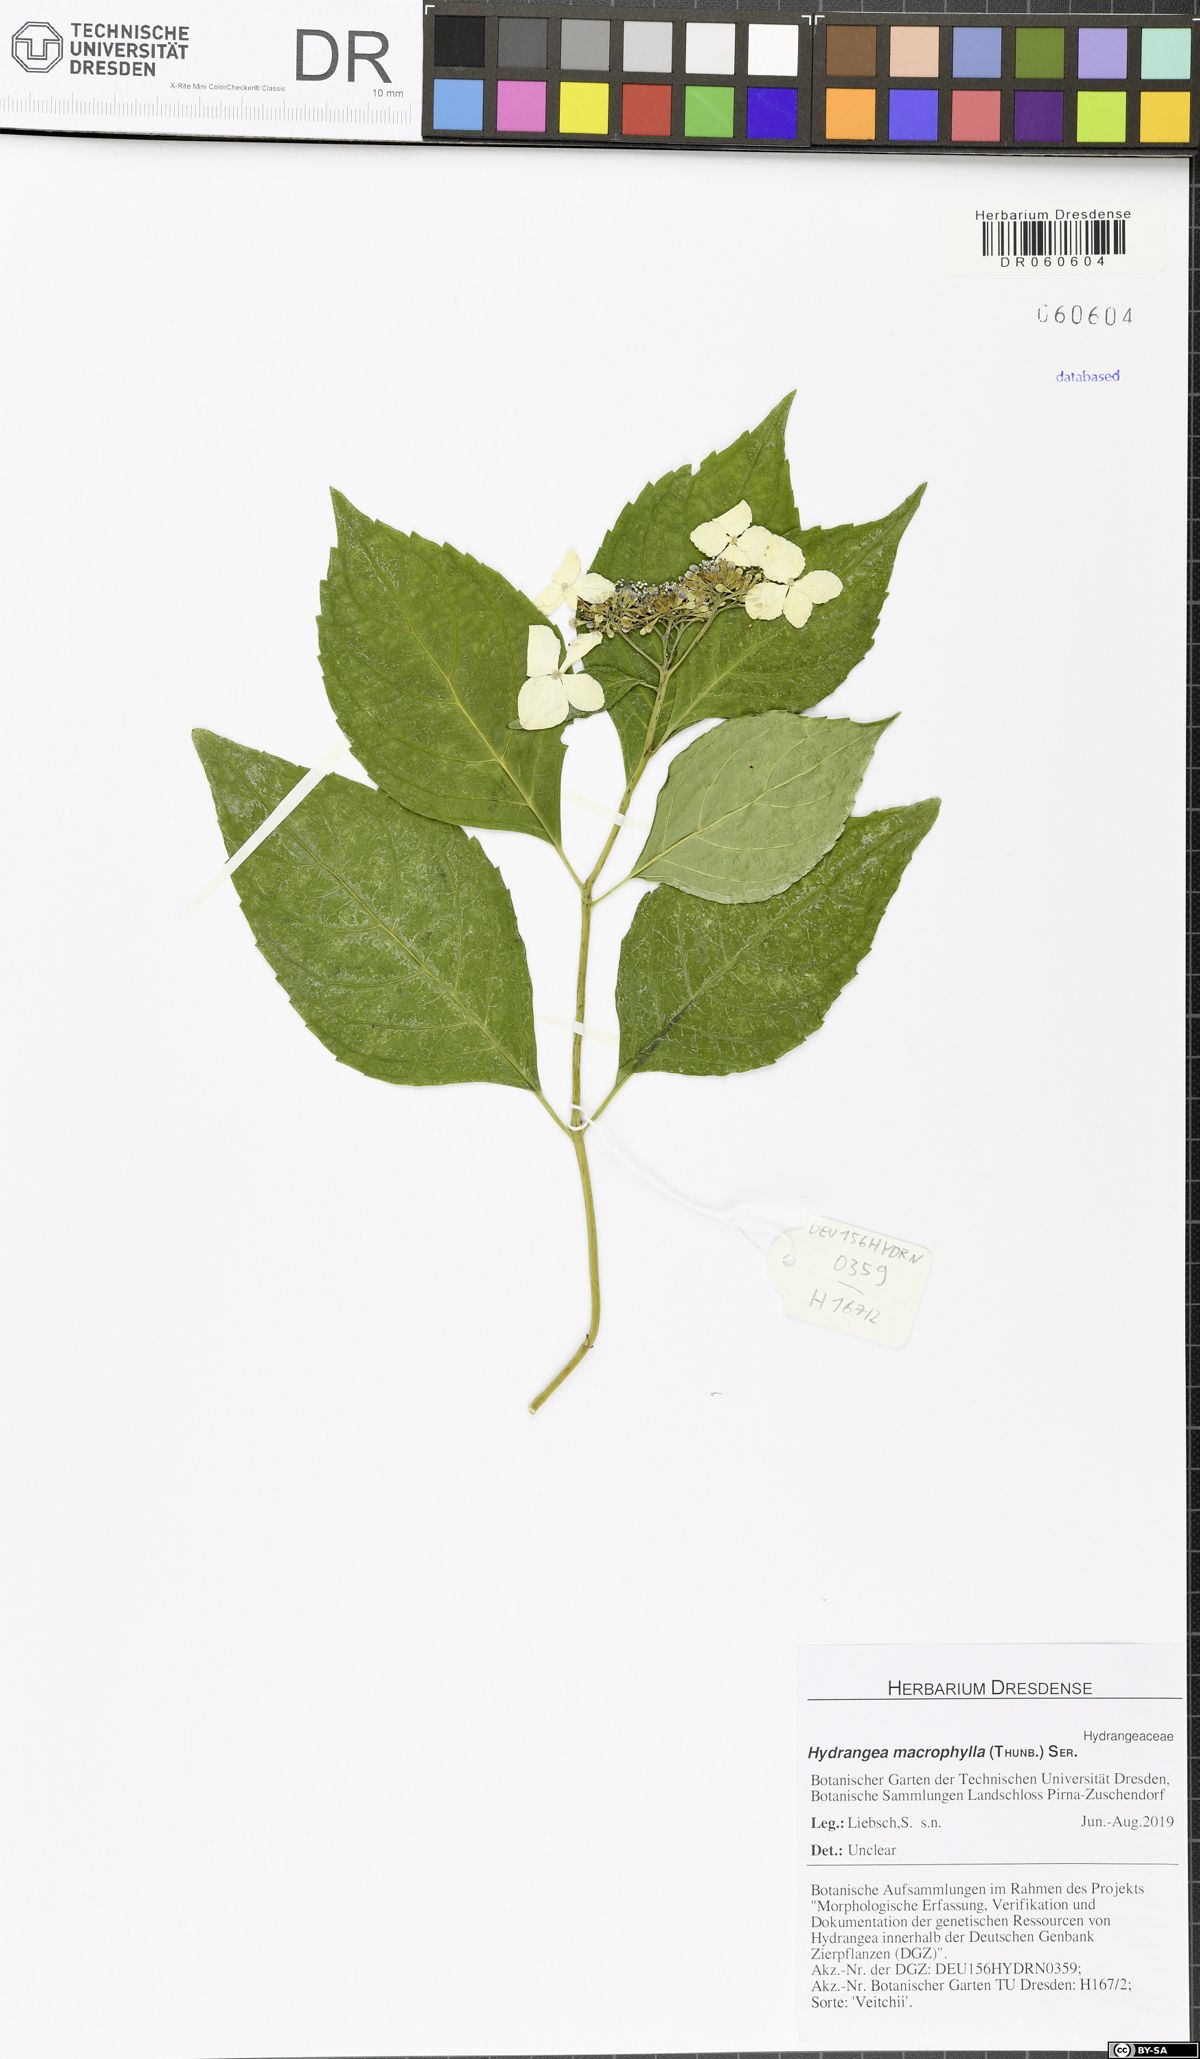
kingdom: Plantae
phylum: Tracheophyta
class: Magnoliopsida
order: Cornales
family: Hydrangeaceae
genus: Hydrangea
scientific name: Hydrangea macrophylla
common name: Hydrangea
